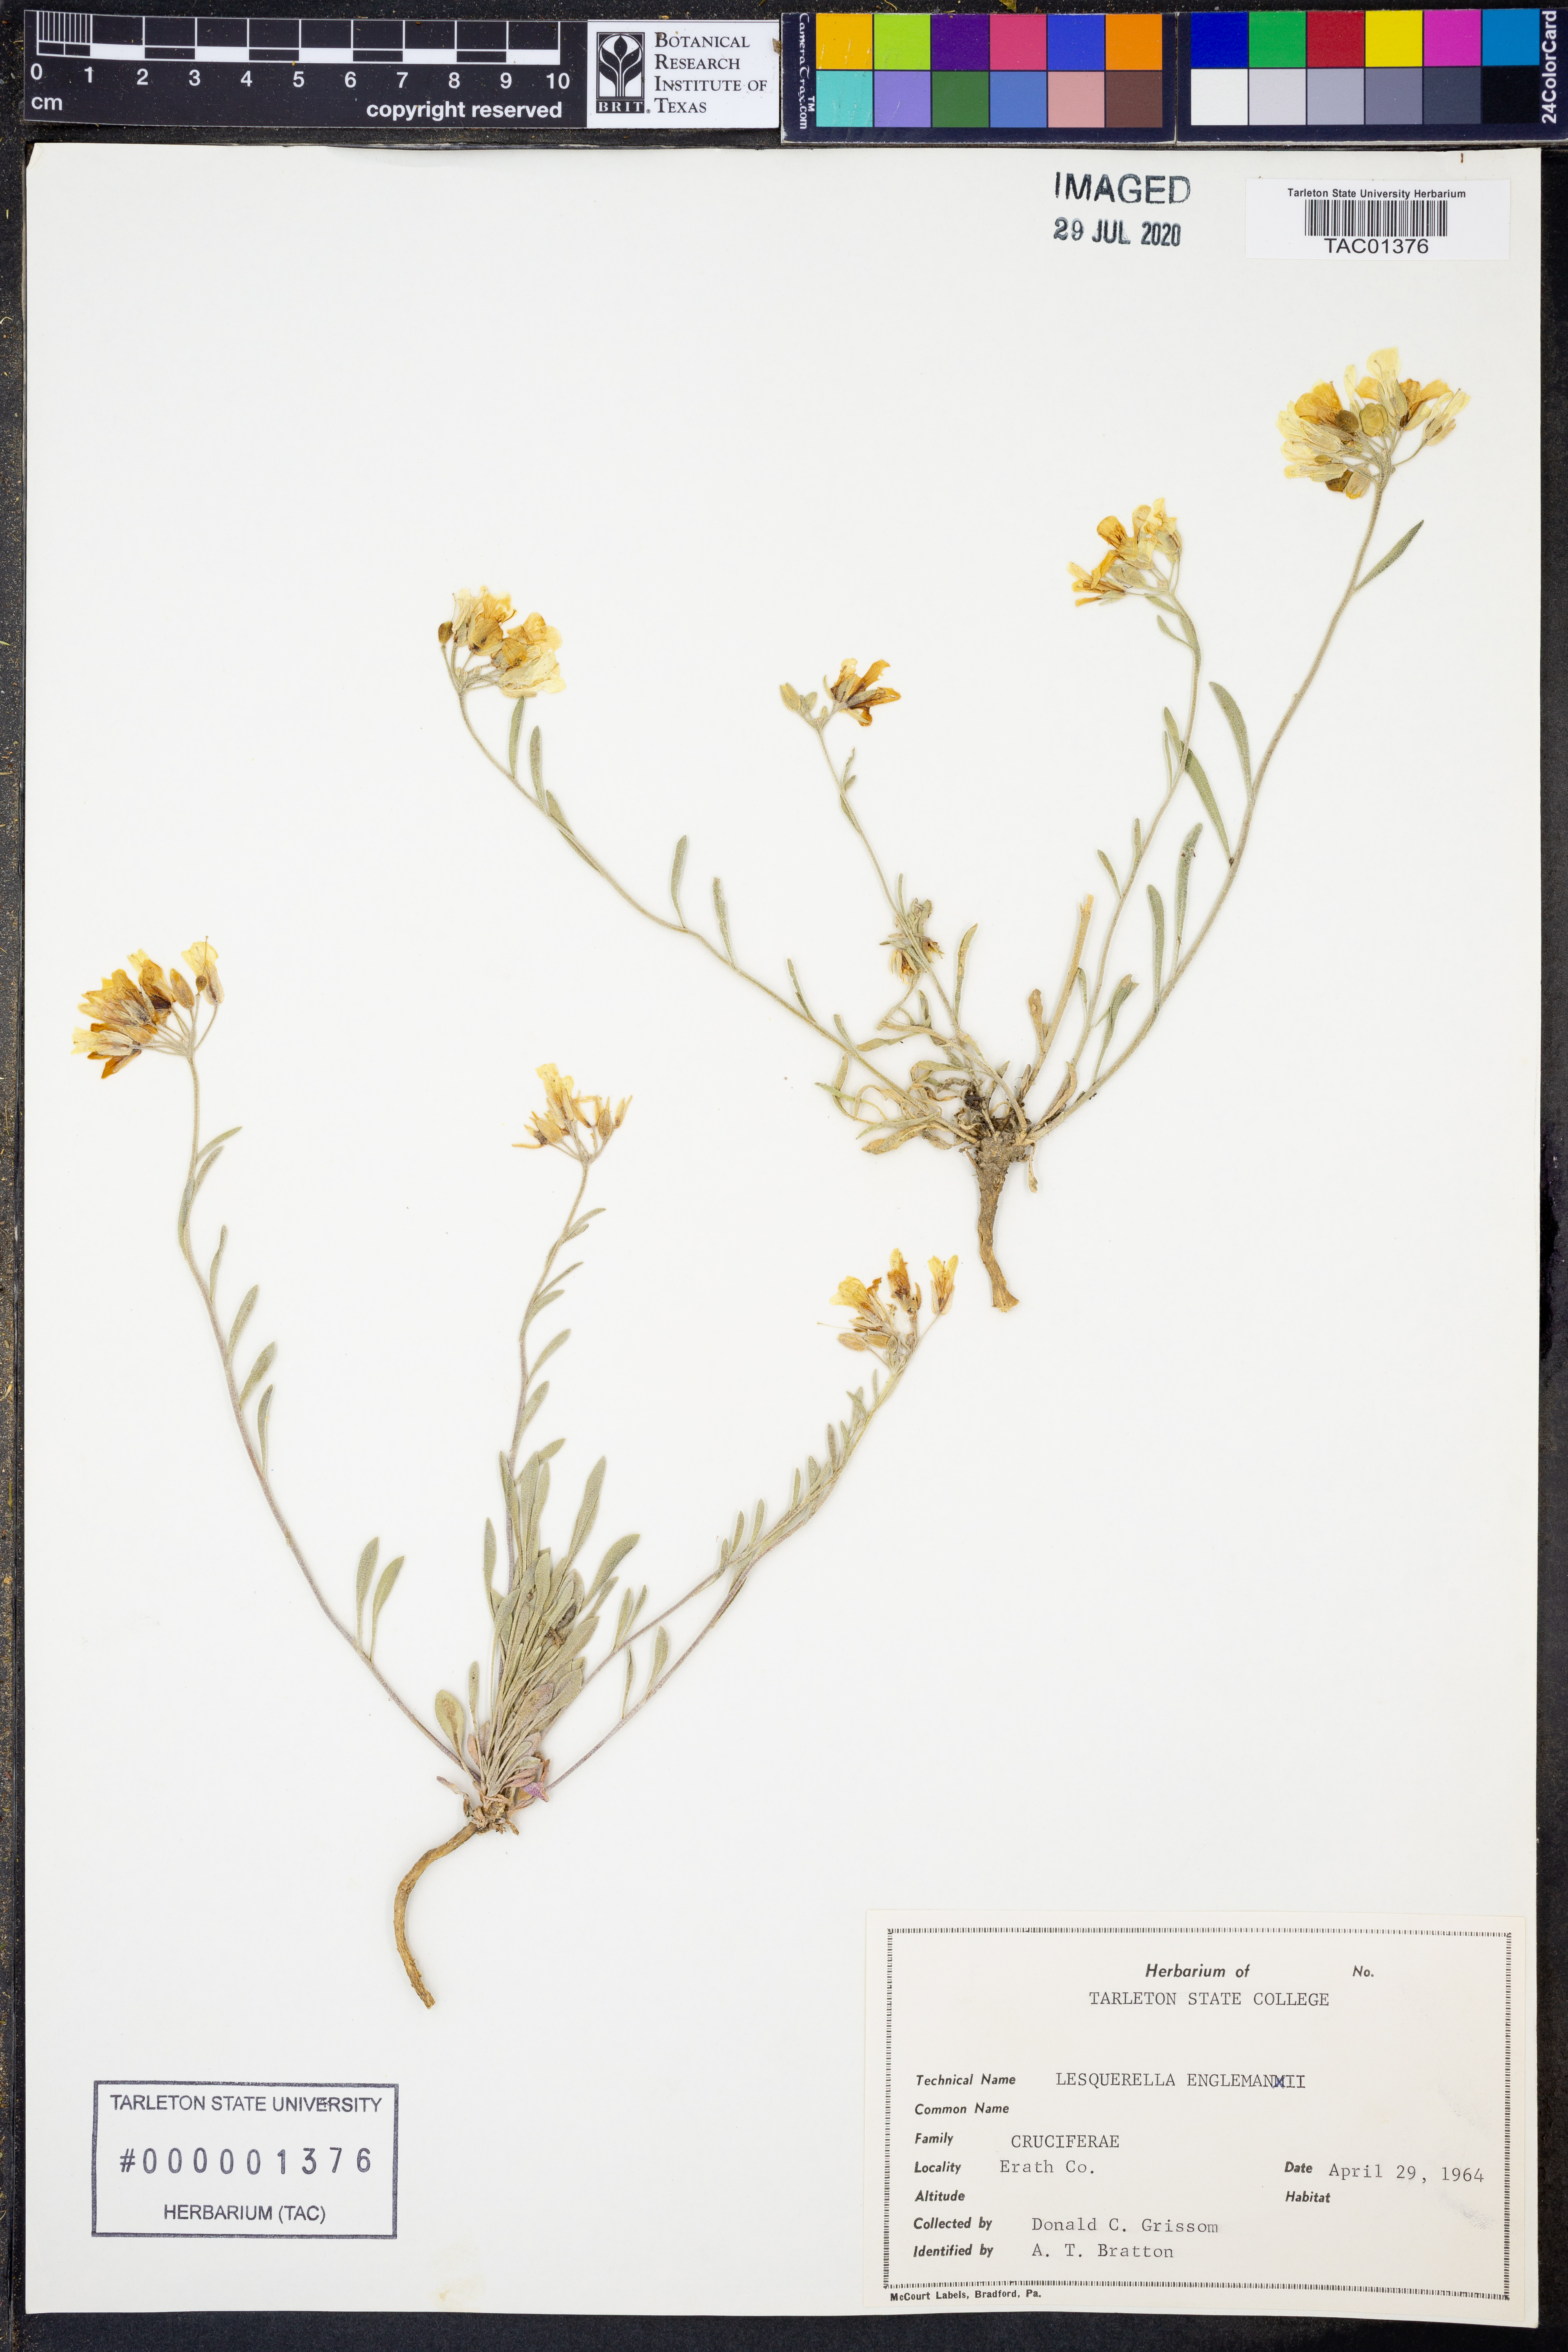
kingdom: Plantae
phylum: Tracheophyta
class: Magnoliopsida
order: Brassicales
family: Brassicaceae
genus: Physaria
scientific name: Physaria engelmannii
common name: Engelmann's bladderpod
